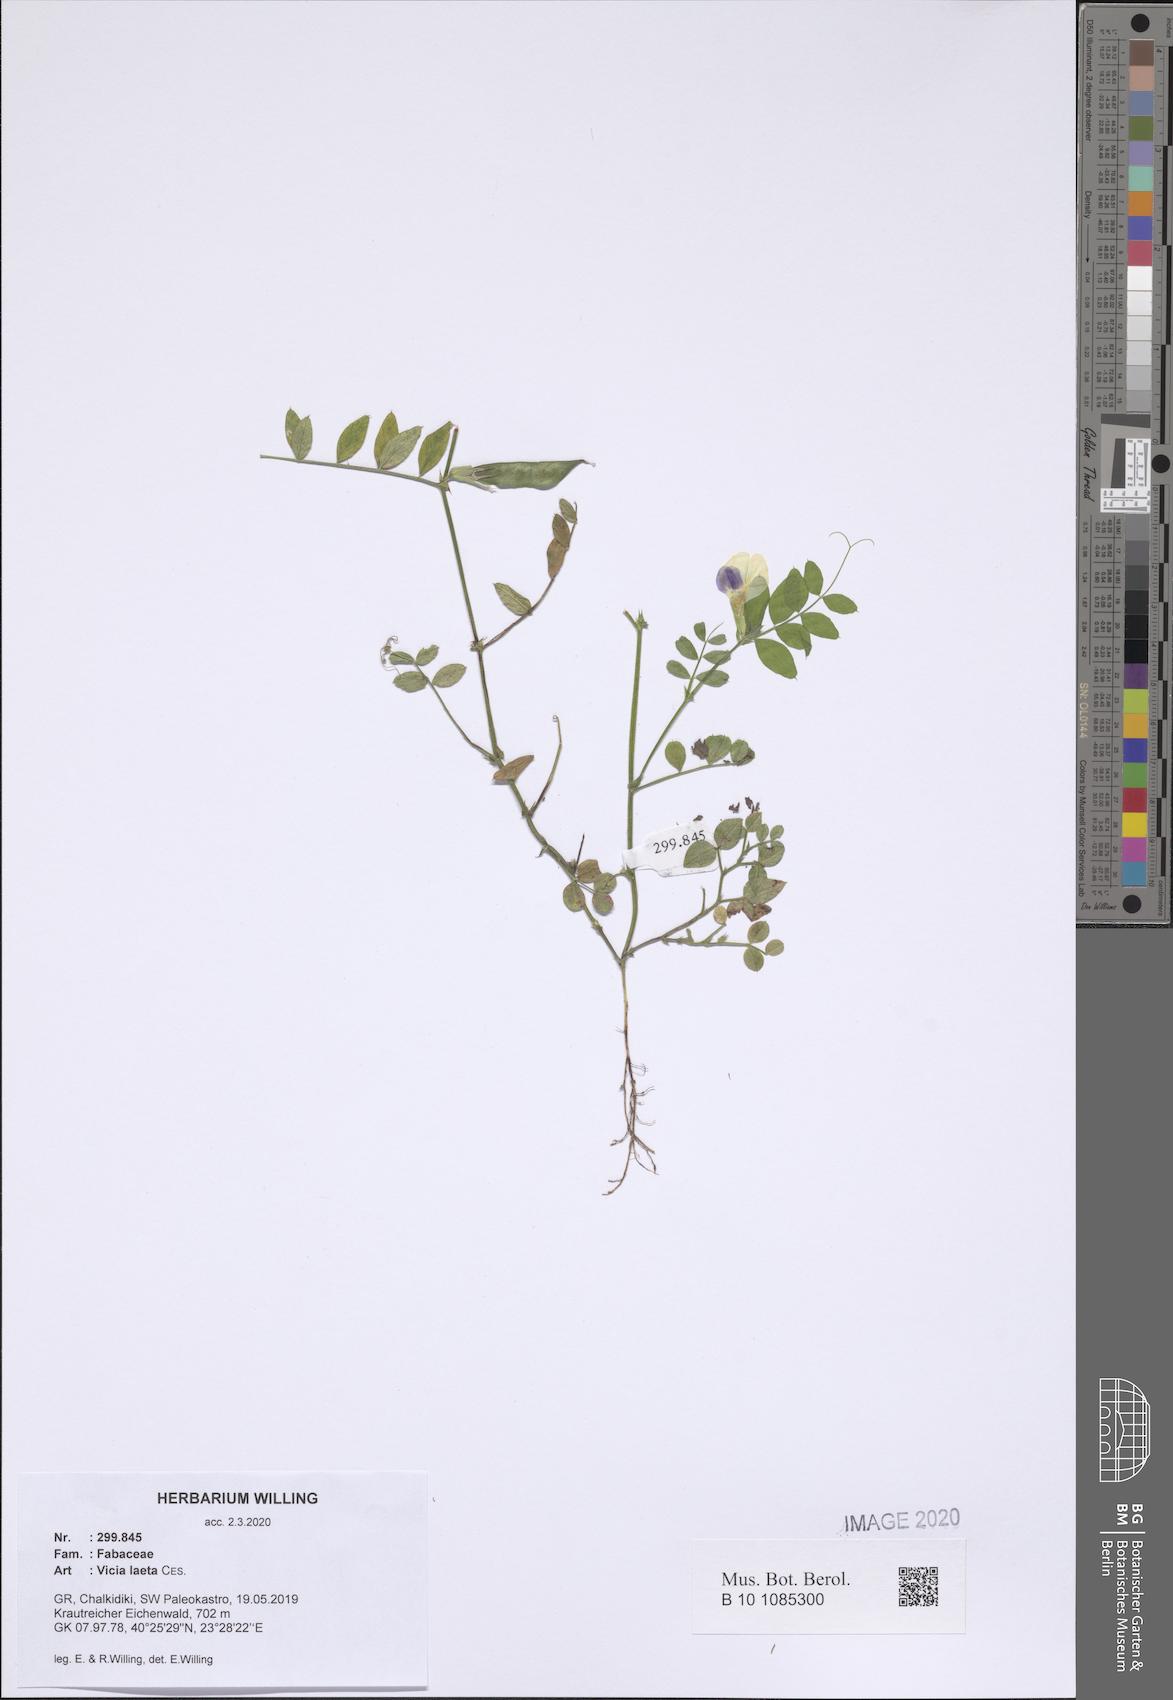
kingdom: Plantae
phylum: Tracheophyta
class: Magnoliopsida
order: Fabales
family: Fabaceae
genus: Vicia
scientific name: Vicia laeta
